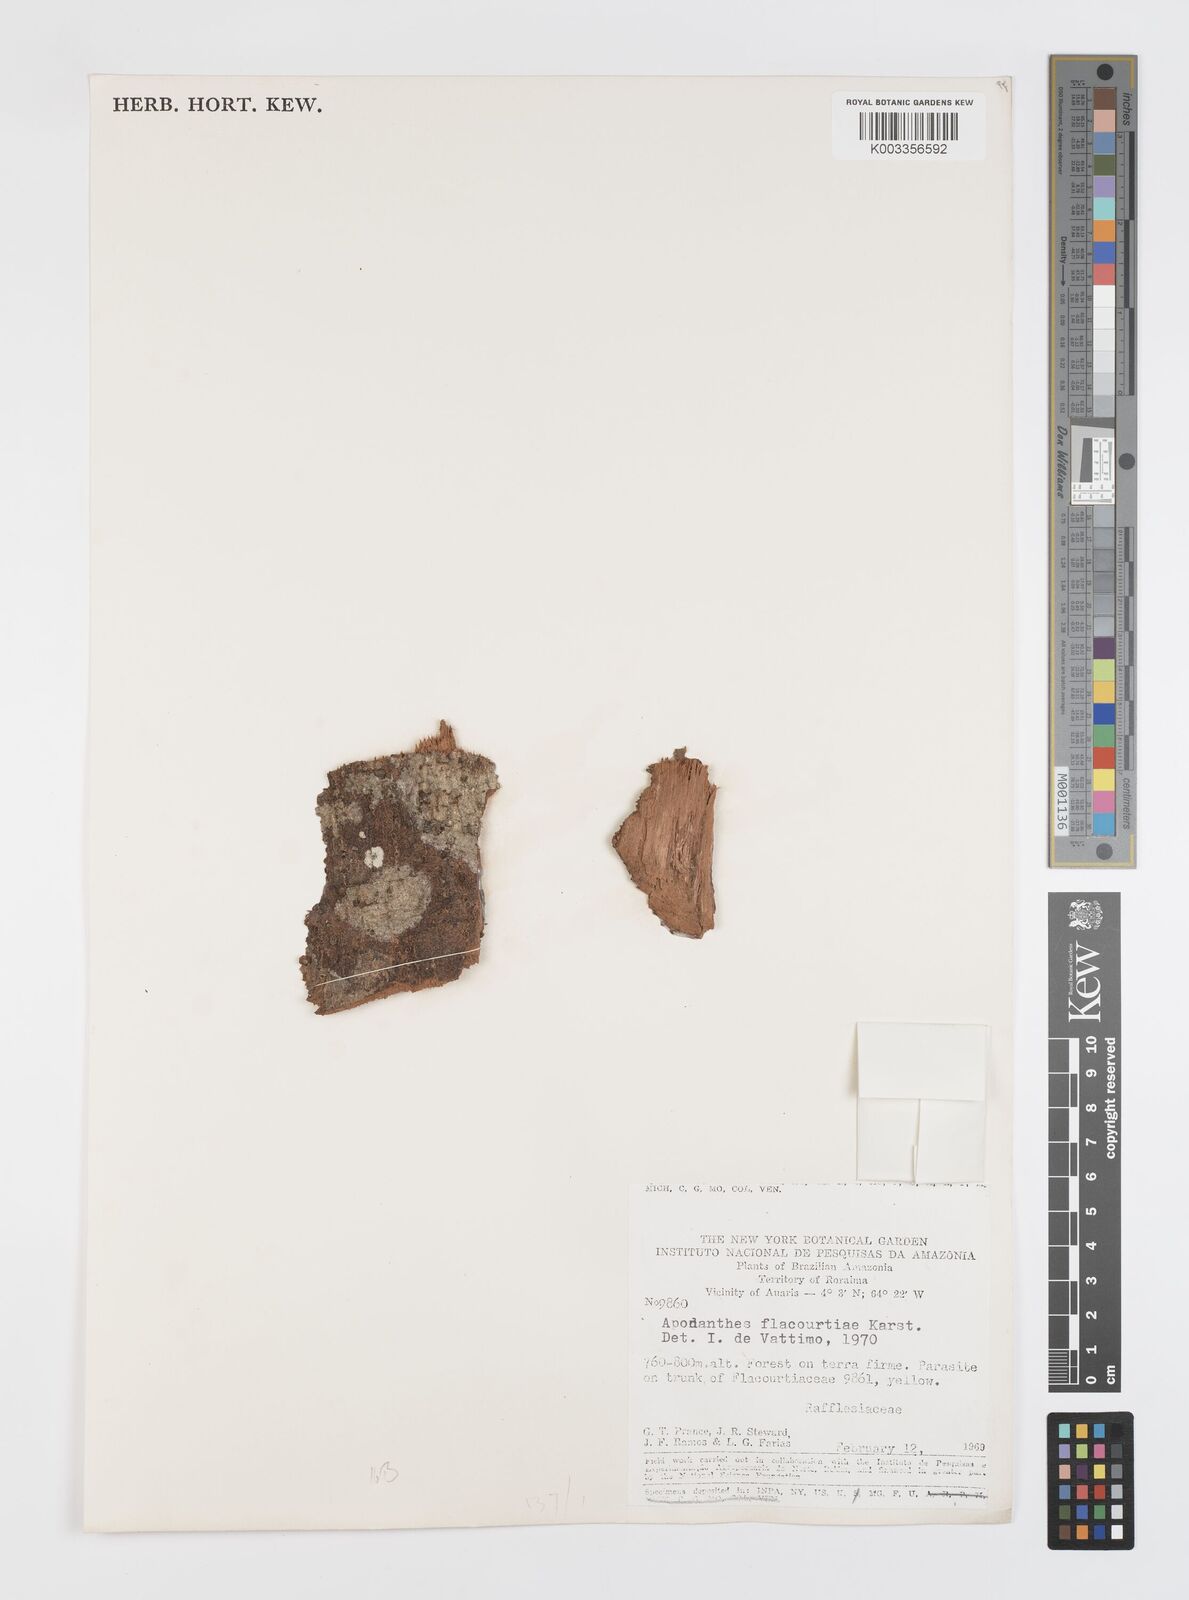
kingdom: Plantae
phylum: Tracheophyta
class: Magnoliopsida
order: Cucurbitales
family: Apodanthaceae
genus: Apodanthes
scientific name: Apodanthes
